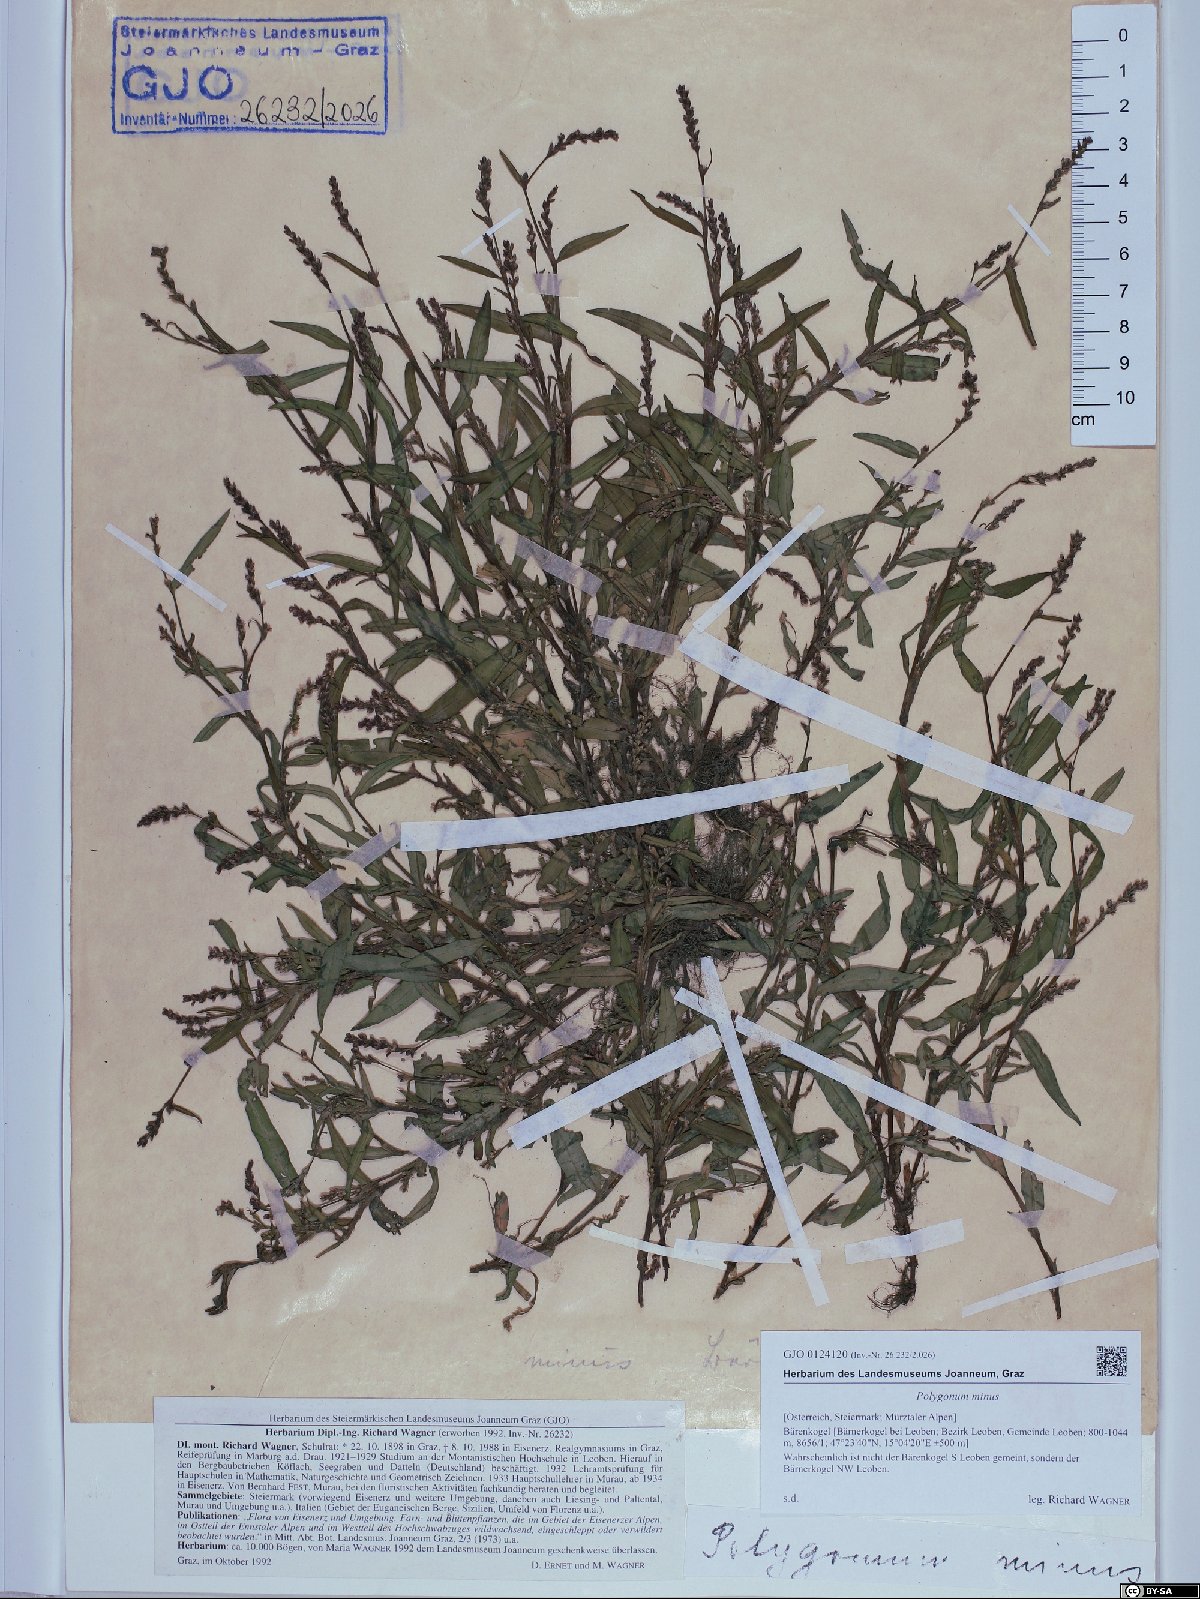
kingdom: Plantae
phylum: Tracheophyta
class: Magnoliopsida
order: Caryophyllales
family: Polygonaceae
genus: Persicaria
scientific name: Persicaria minor
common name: Small water-pepper
